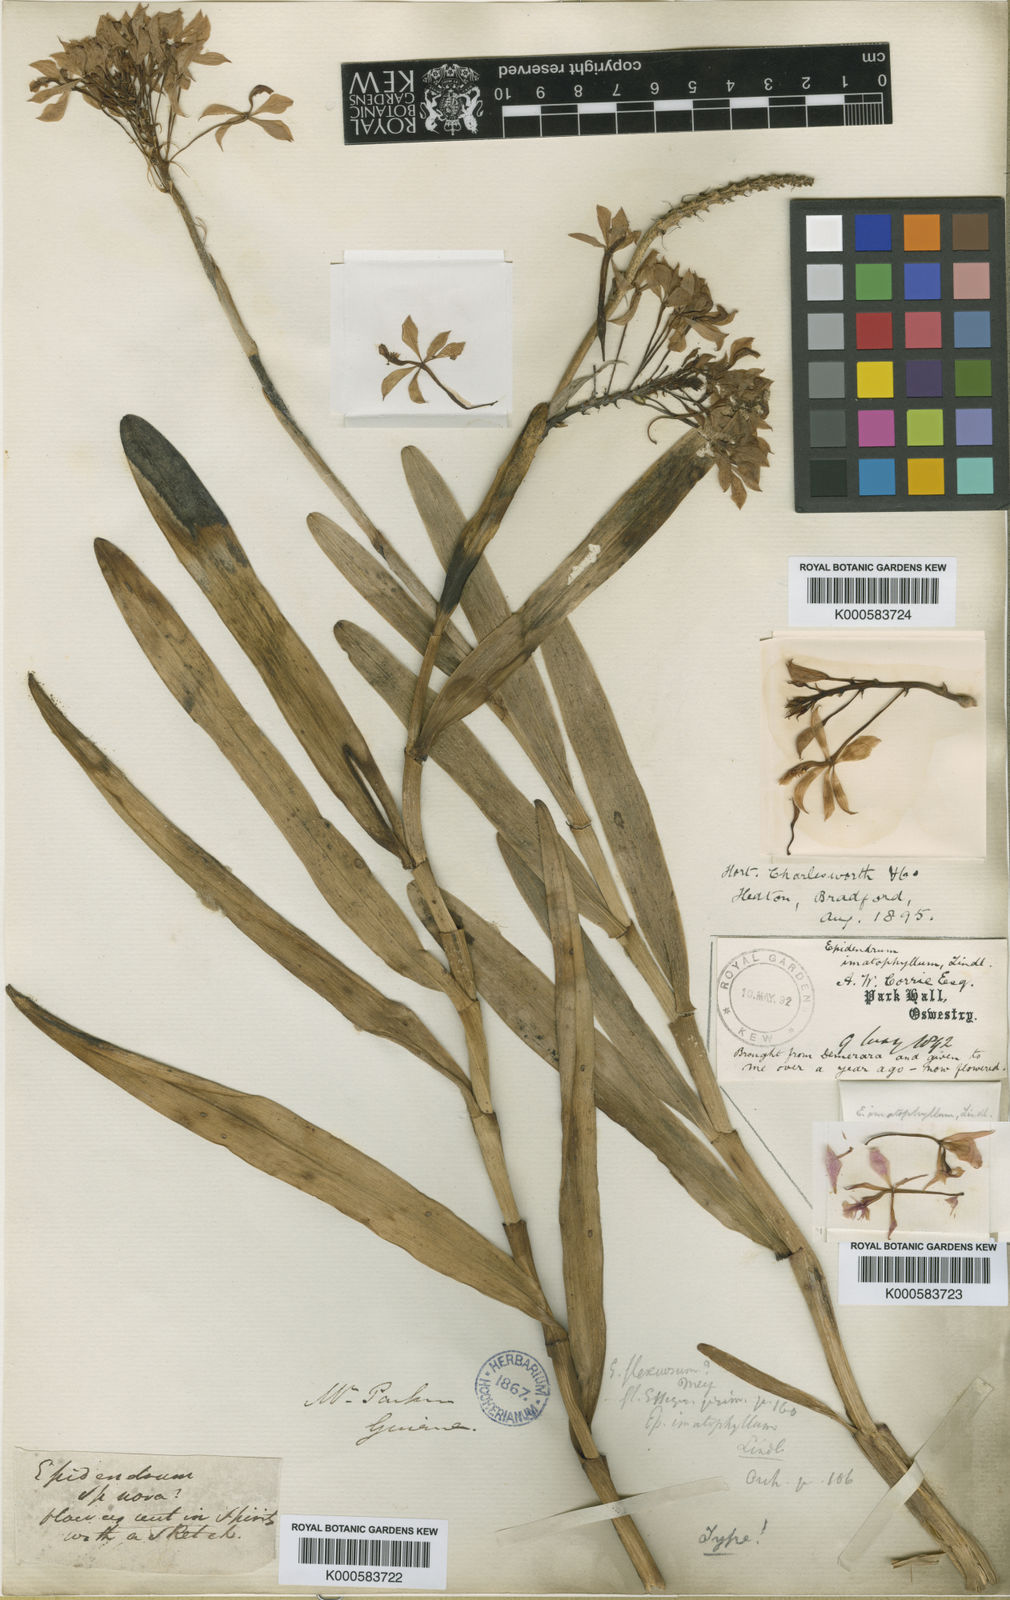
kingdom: Plantae
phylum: Tracheophyta
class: Liliopsida
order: Asparagales
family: Orchidaceae
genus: Epidendrum
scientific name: Epidendrum
